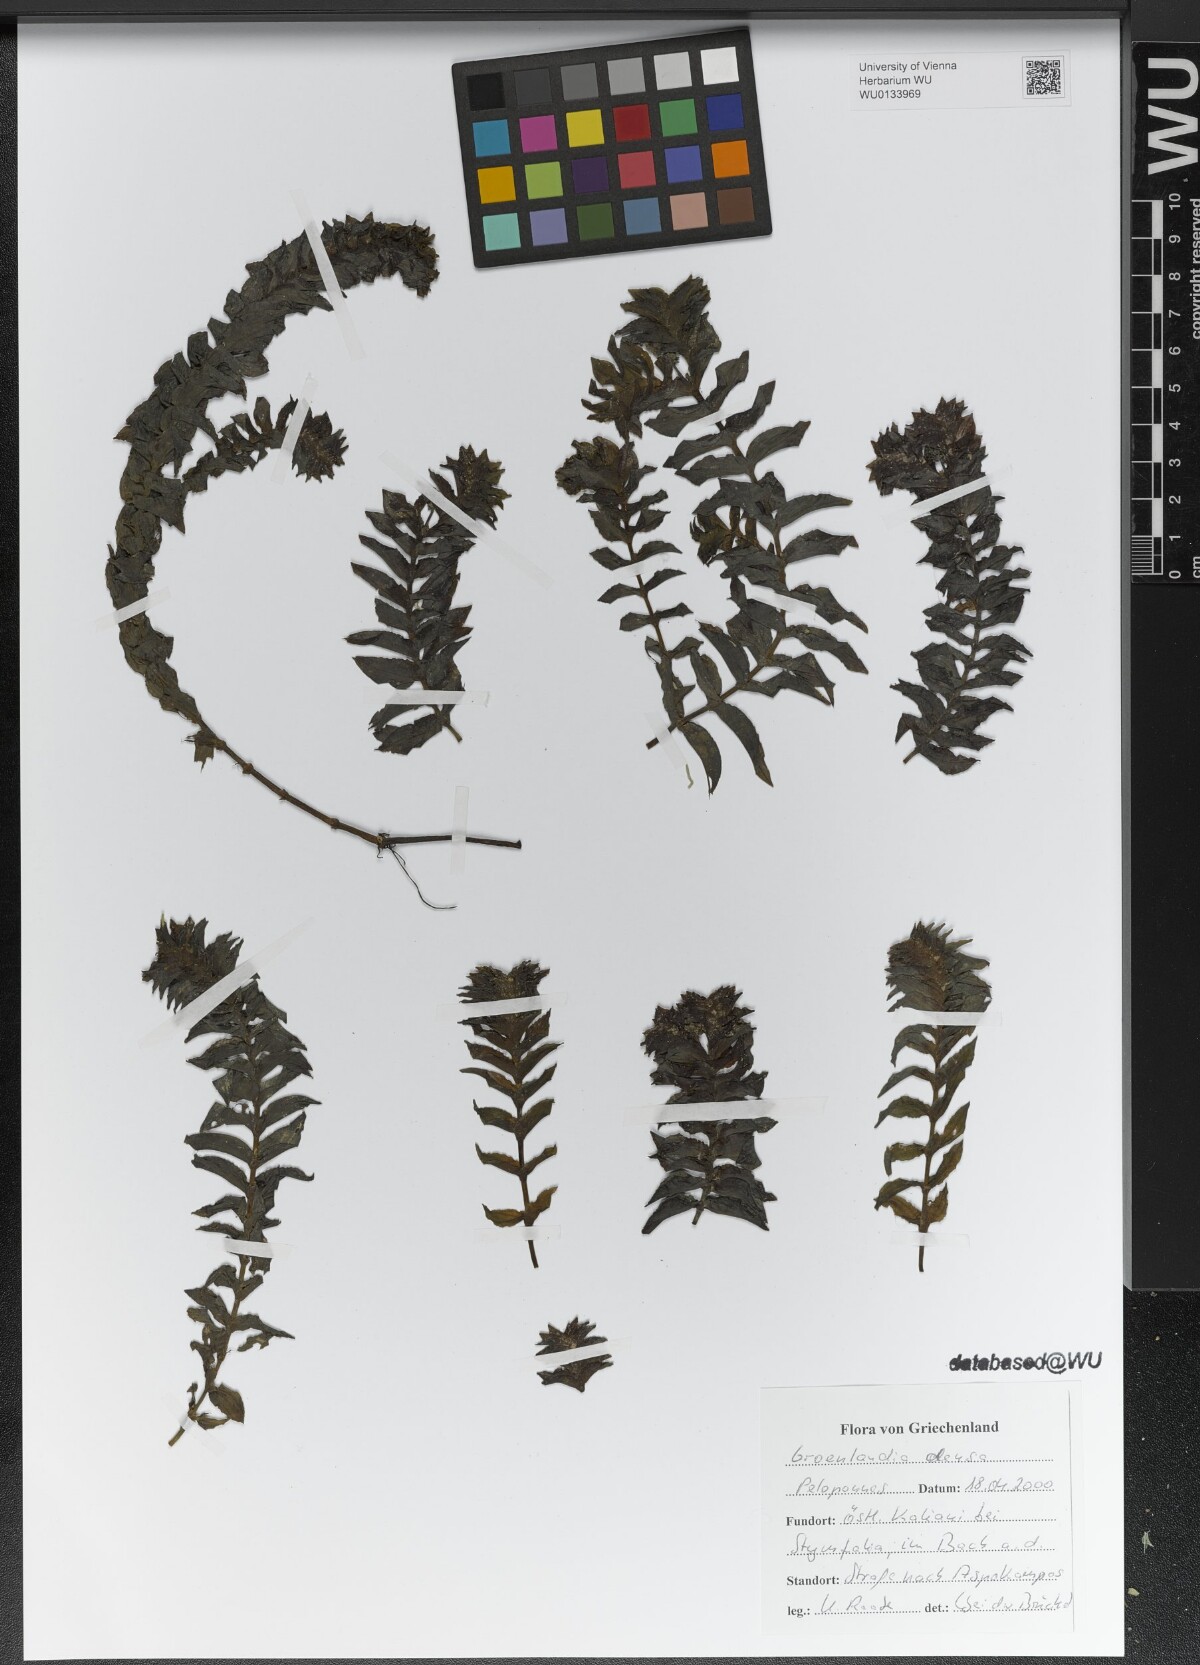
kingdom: Plantae
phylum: Tracheophyta
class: Liliopsida
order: Alismatales
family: Potamogetonaceae
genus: Groenlandia
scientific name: Groenlandia densa
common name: Opposite-leaved pondweed
